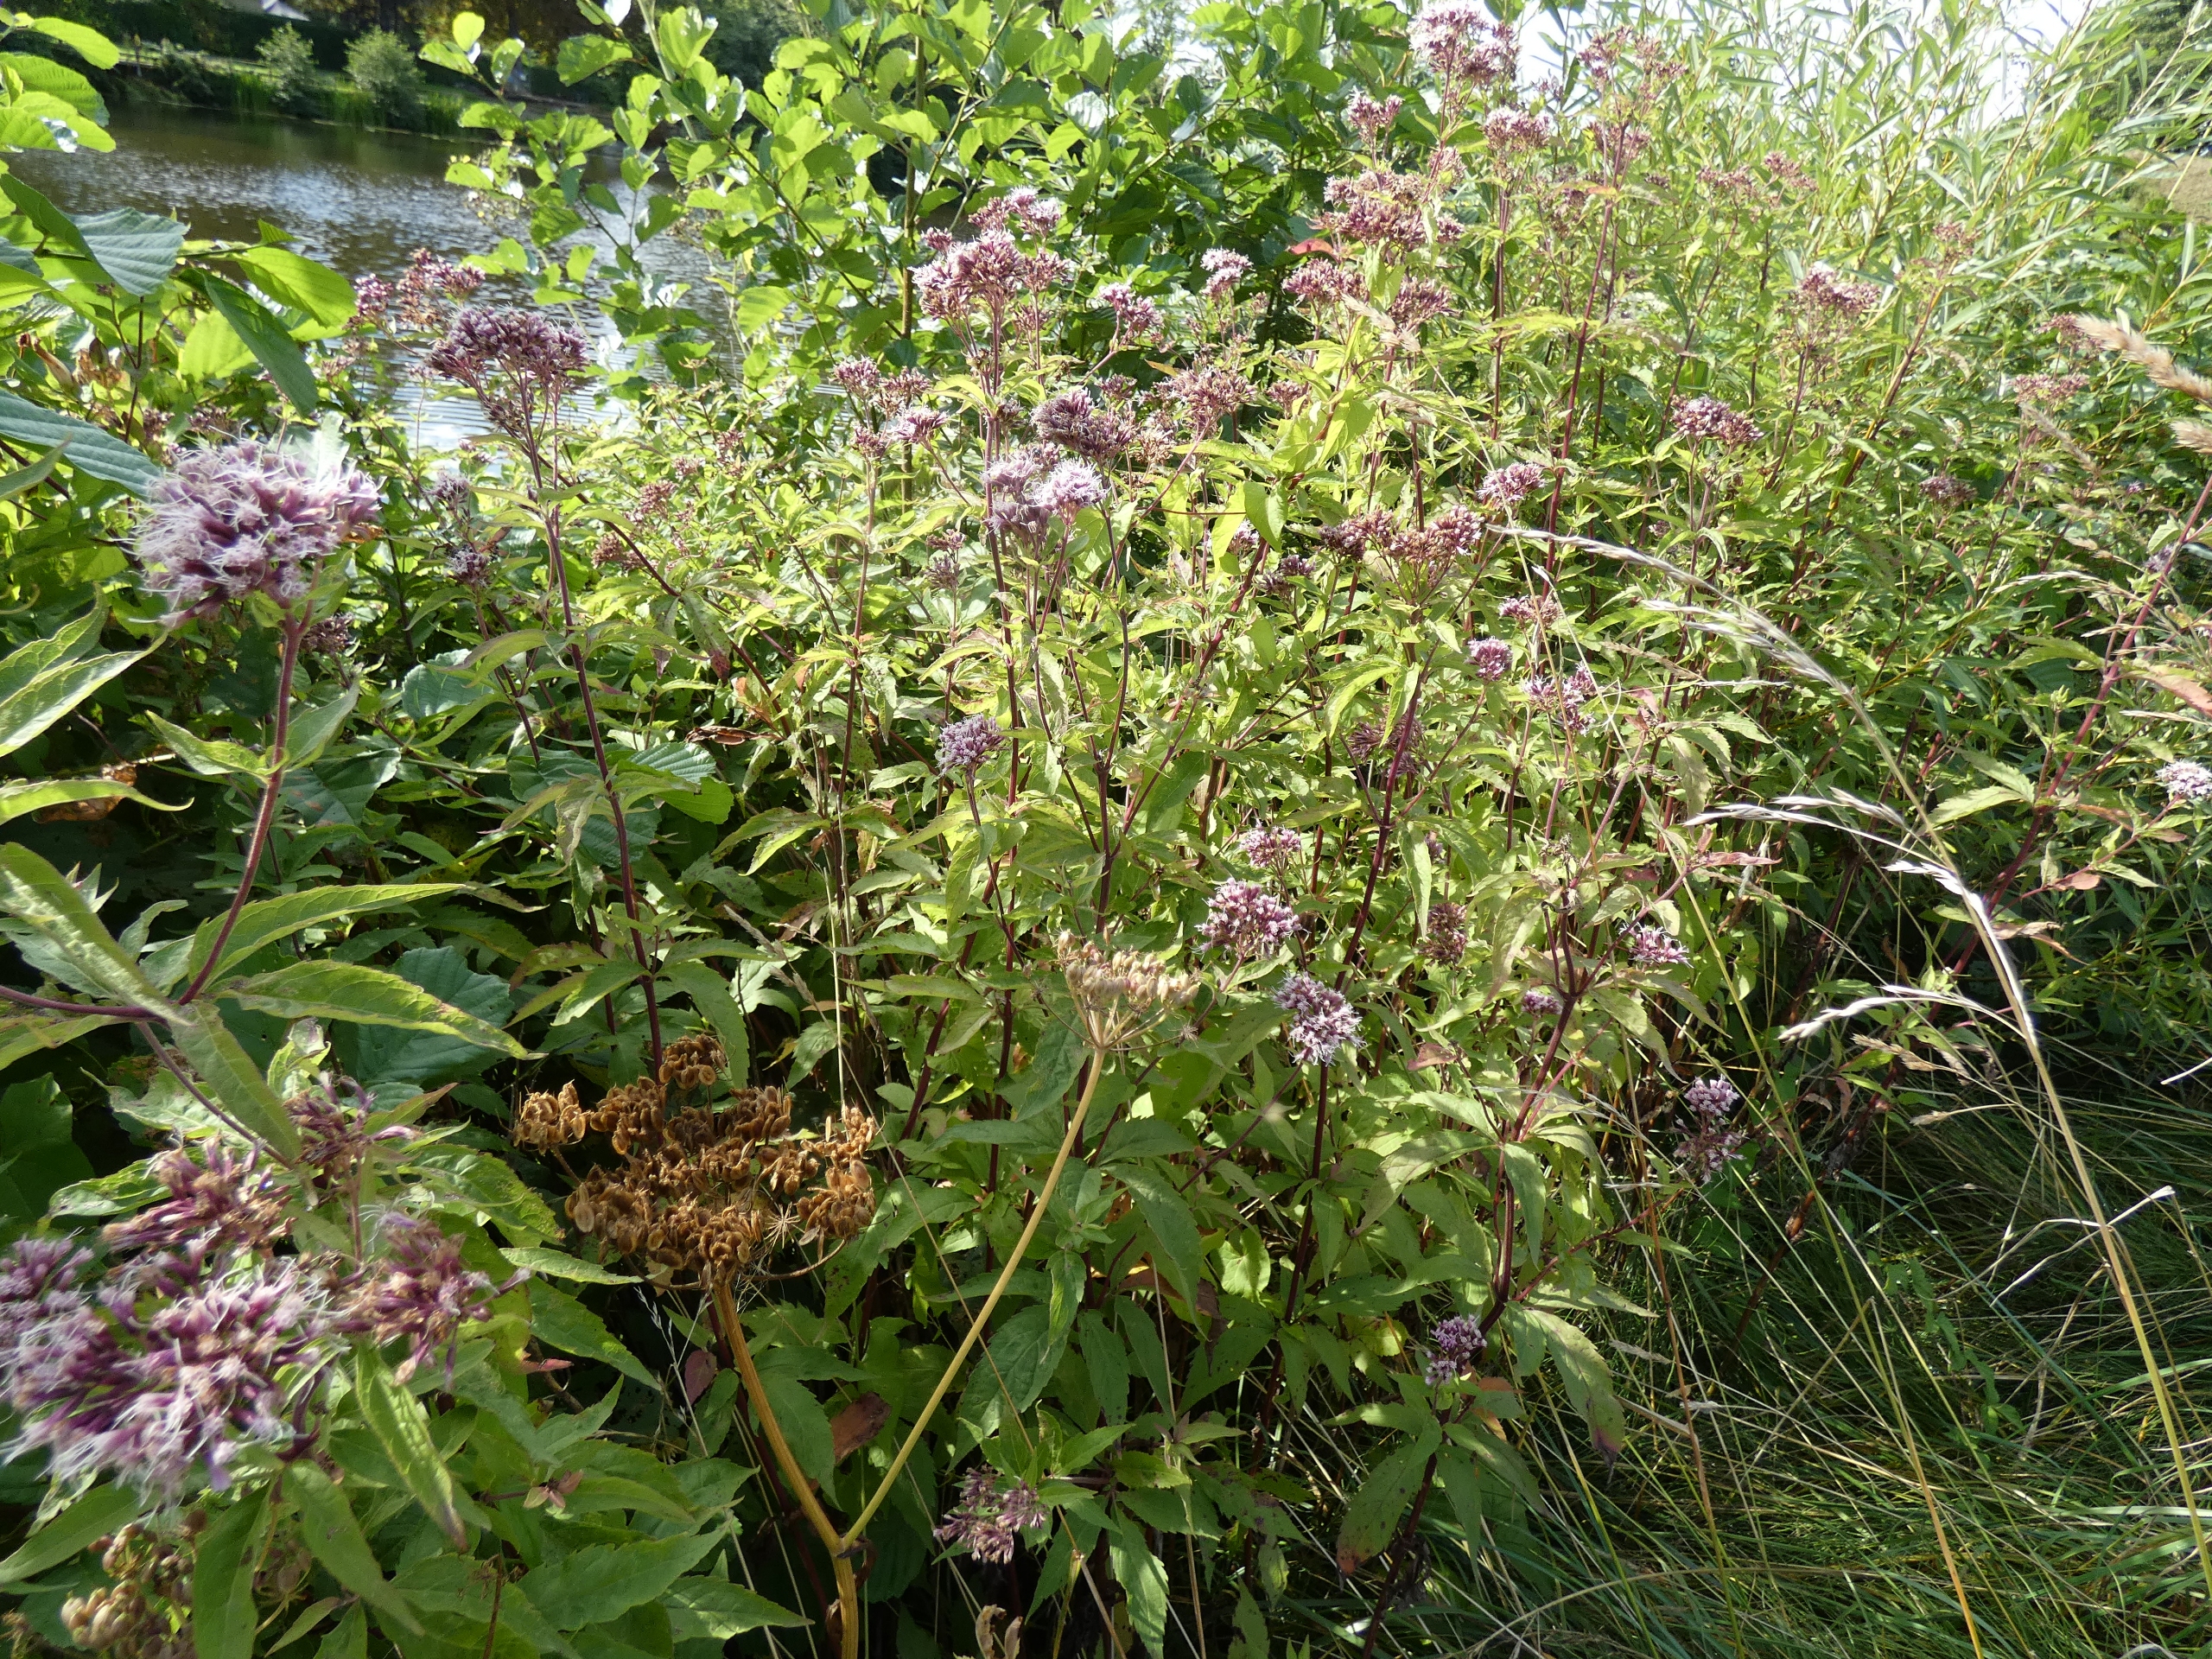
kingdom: Plantae
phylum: Tracheophyta
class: Magnoliopsida
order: Asterales
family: Asteraceae
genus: Eupatorium
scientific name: Eupatorium cannabinum
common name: Hjortetrøst
